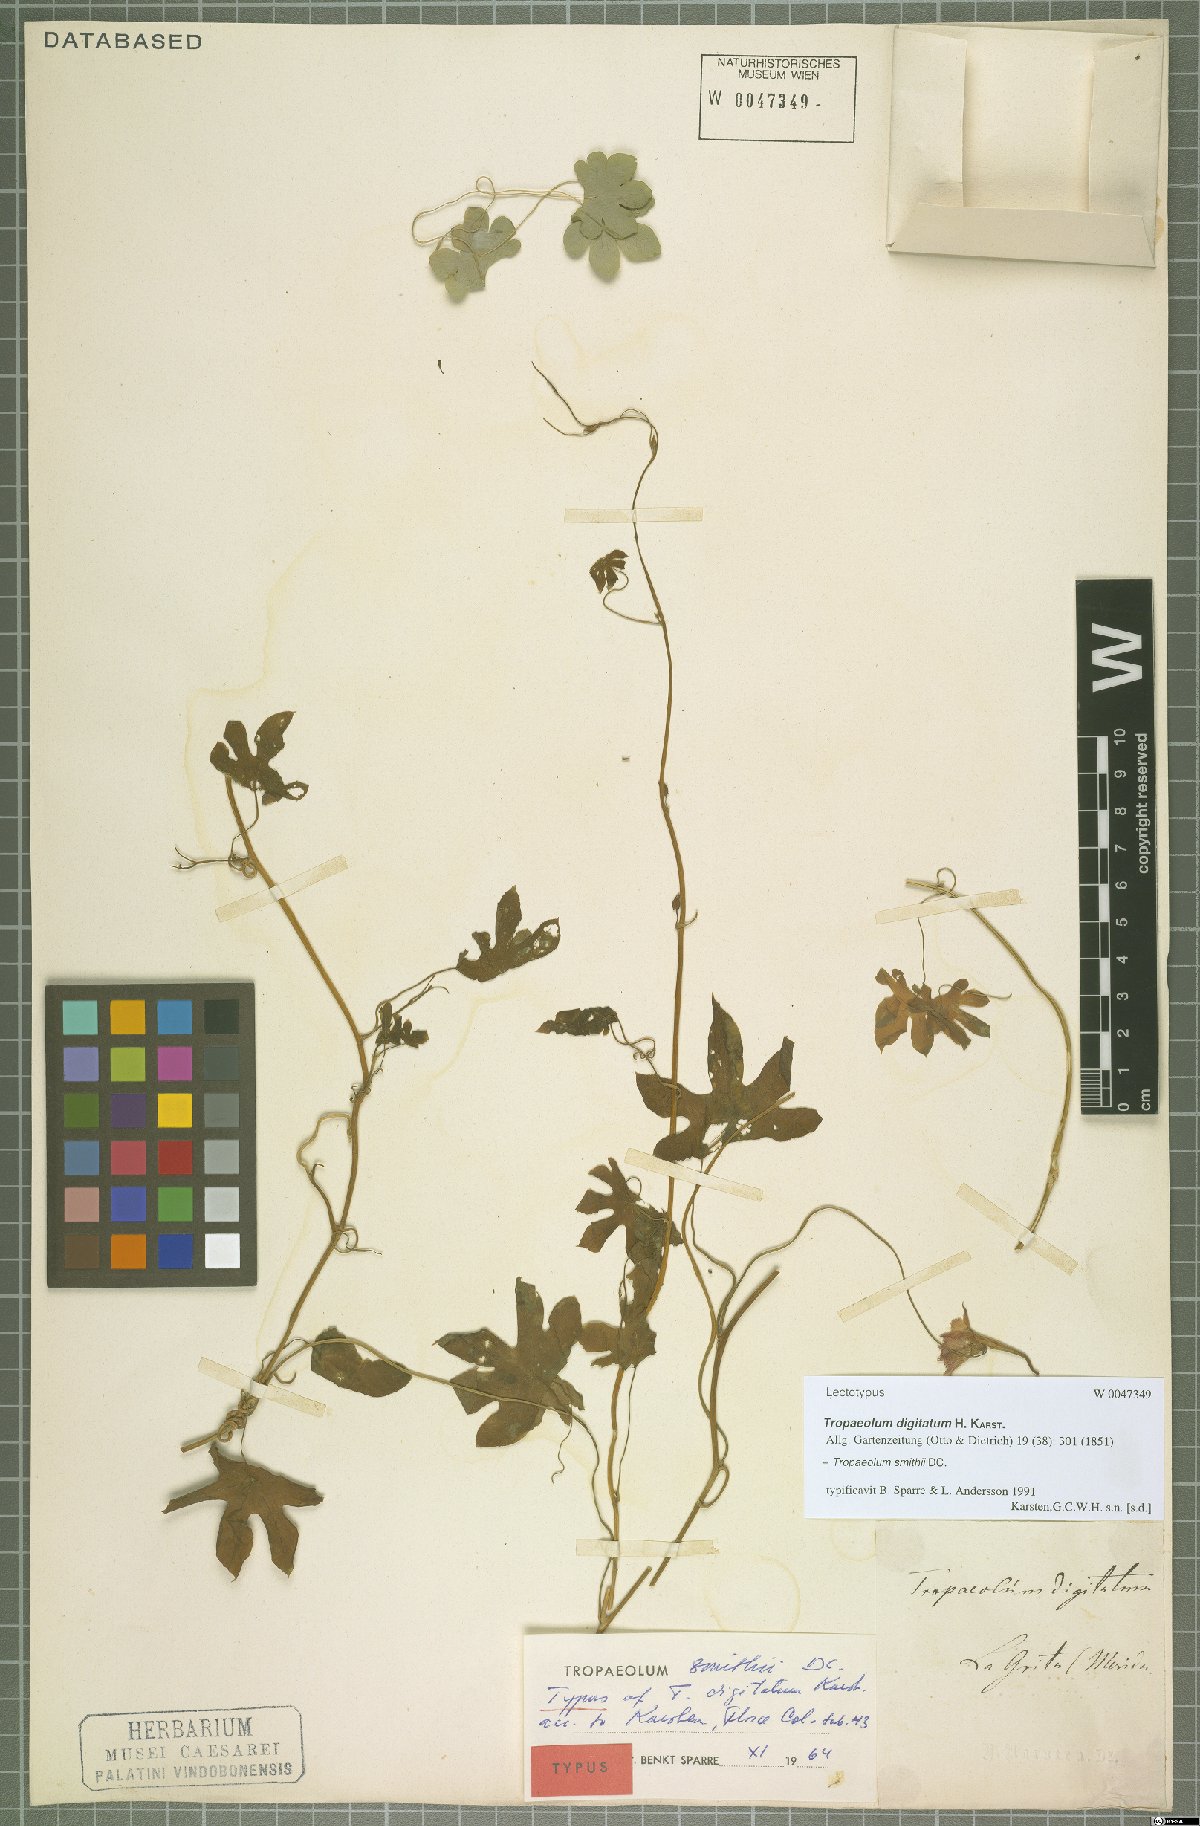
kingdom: Plantae
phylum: Tracheophyta
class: Magnoliopsida
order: Brassicales
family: Tropaeolaceae
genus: Tropaeolum
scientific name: Tropaeolum smithii
